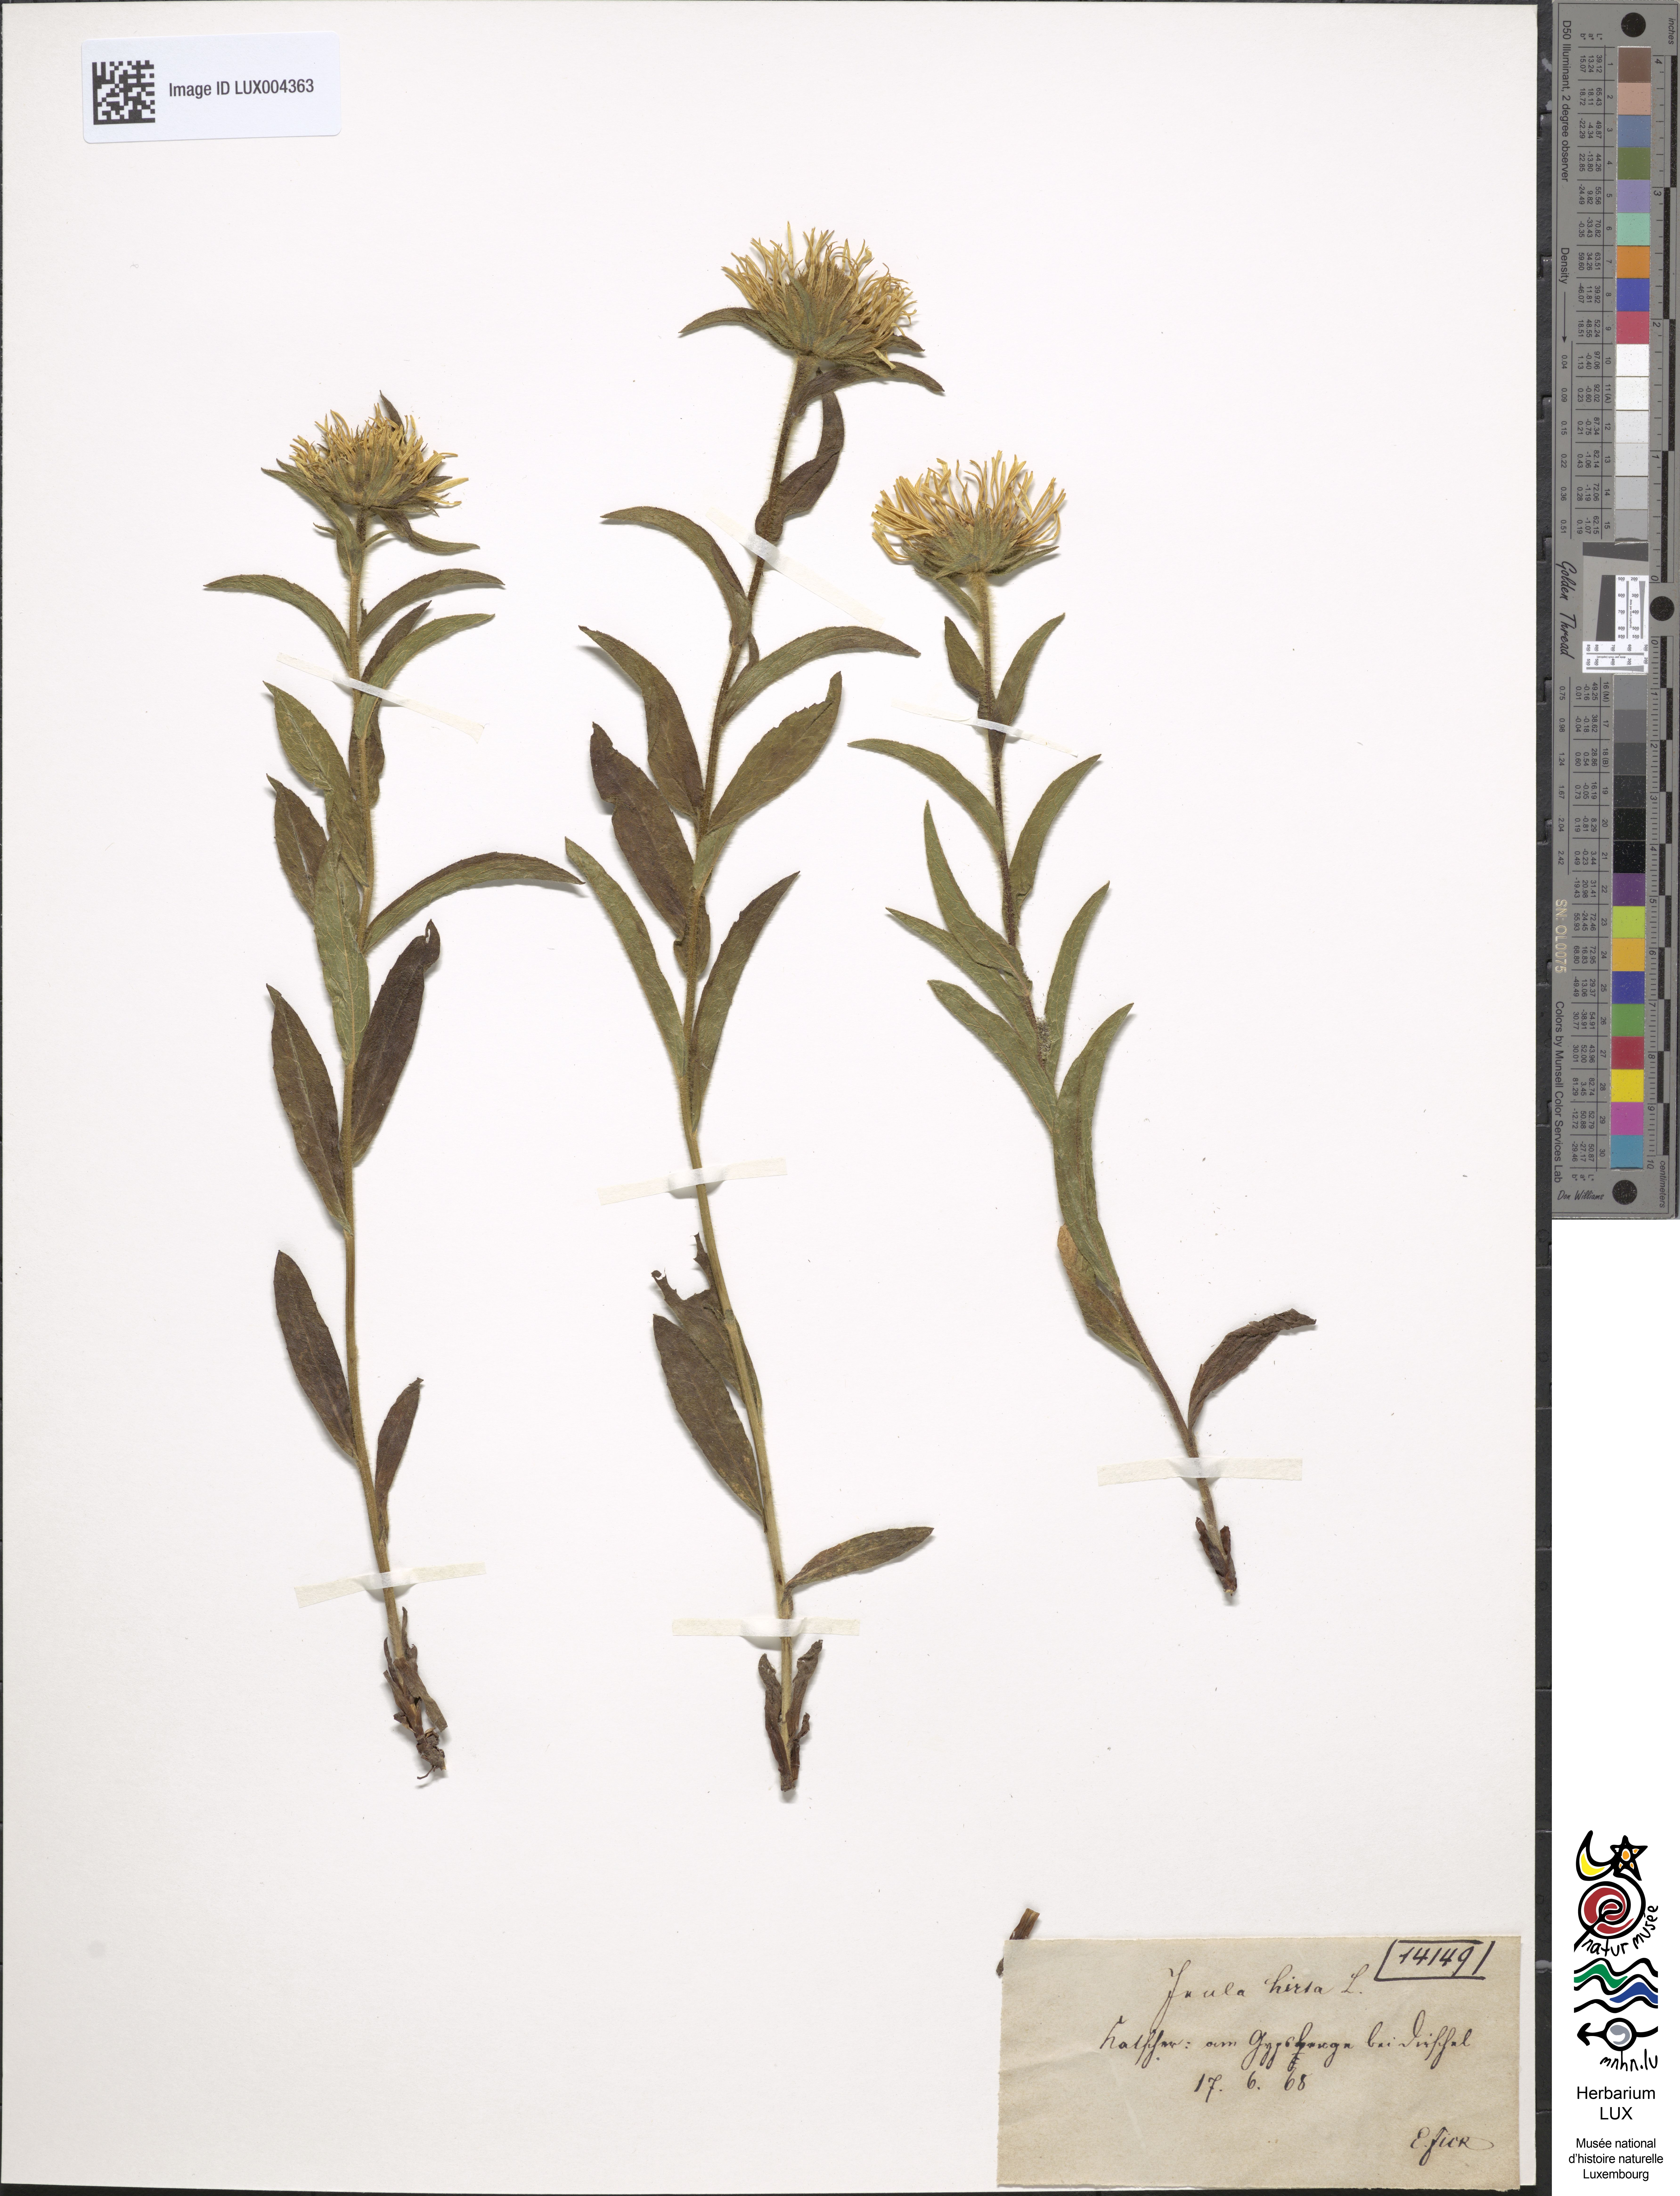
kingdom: Plantae
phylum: Tracheophyta
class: Magnoliopsida
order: Asterales
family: Asteraceae
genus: Pentanema
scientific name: Pentanema hirtum
